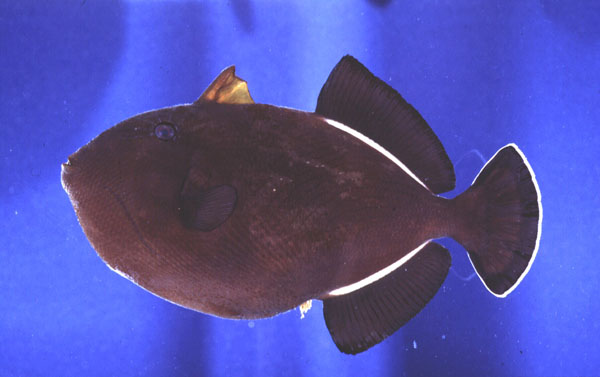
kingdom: Animalia
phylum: Chordata
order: Tetraodontiformes
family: Balistidae
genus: Melichthys
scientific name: Melichthys indicus
